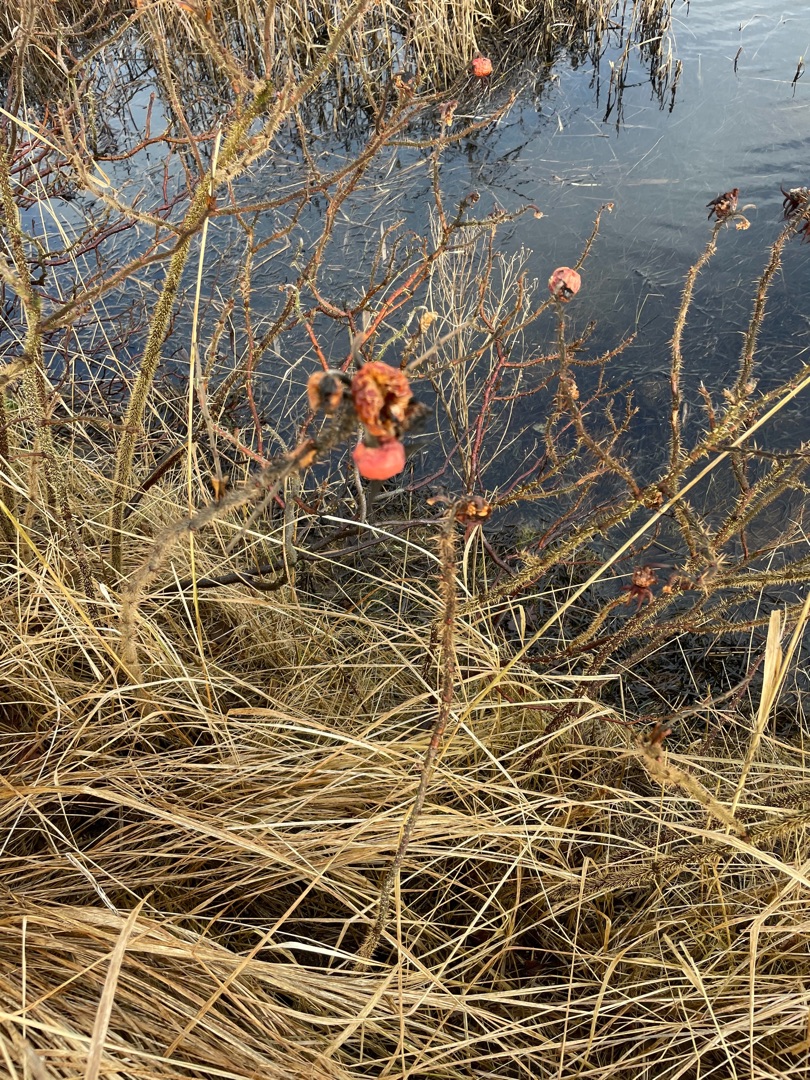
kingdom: Plantae
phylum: Tracheophyta
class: Magnoliopsida
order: Rosales
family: Rosaceae
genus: Rosa
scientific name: Rosa rugosa
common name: Rynket rose
